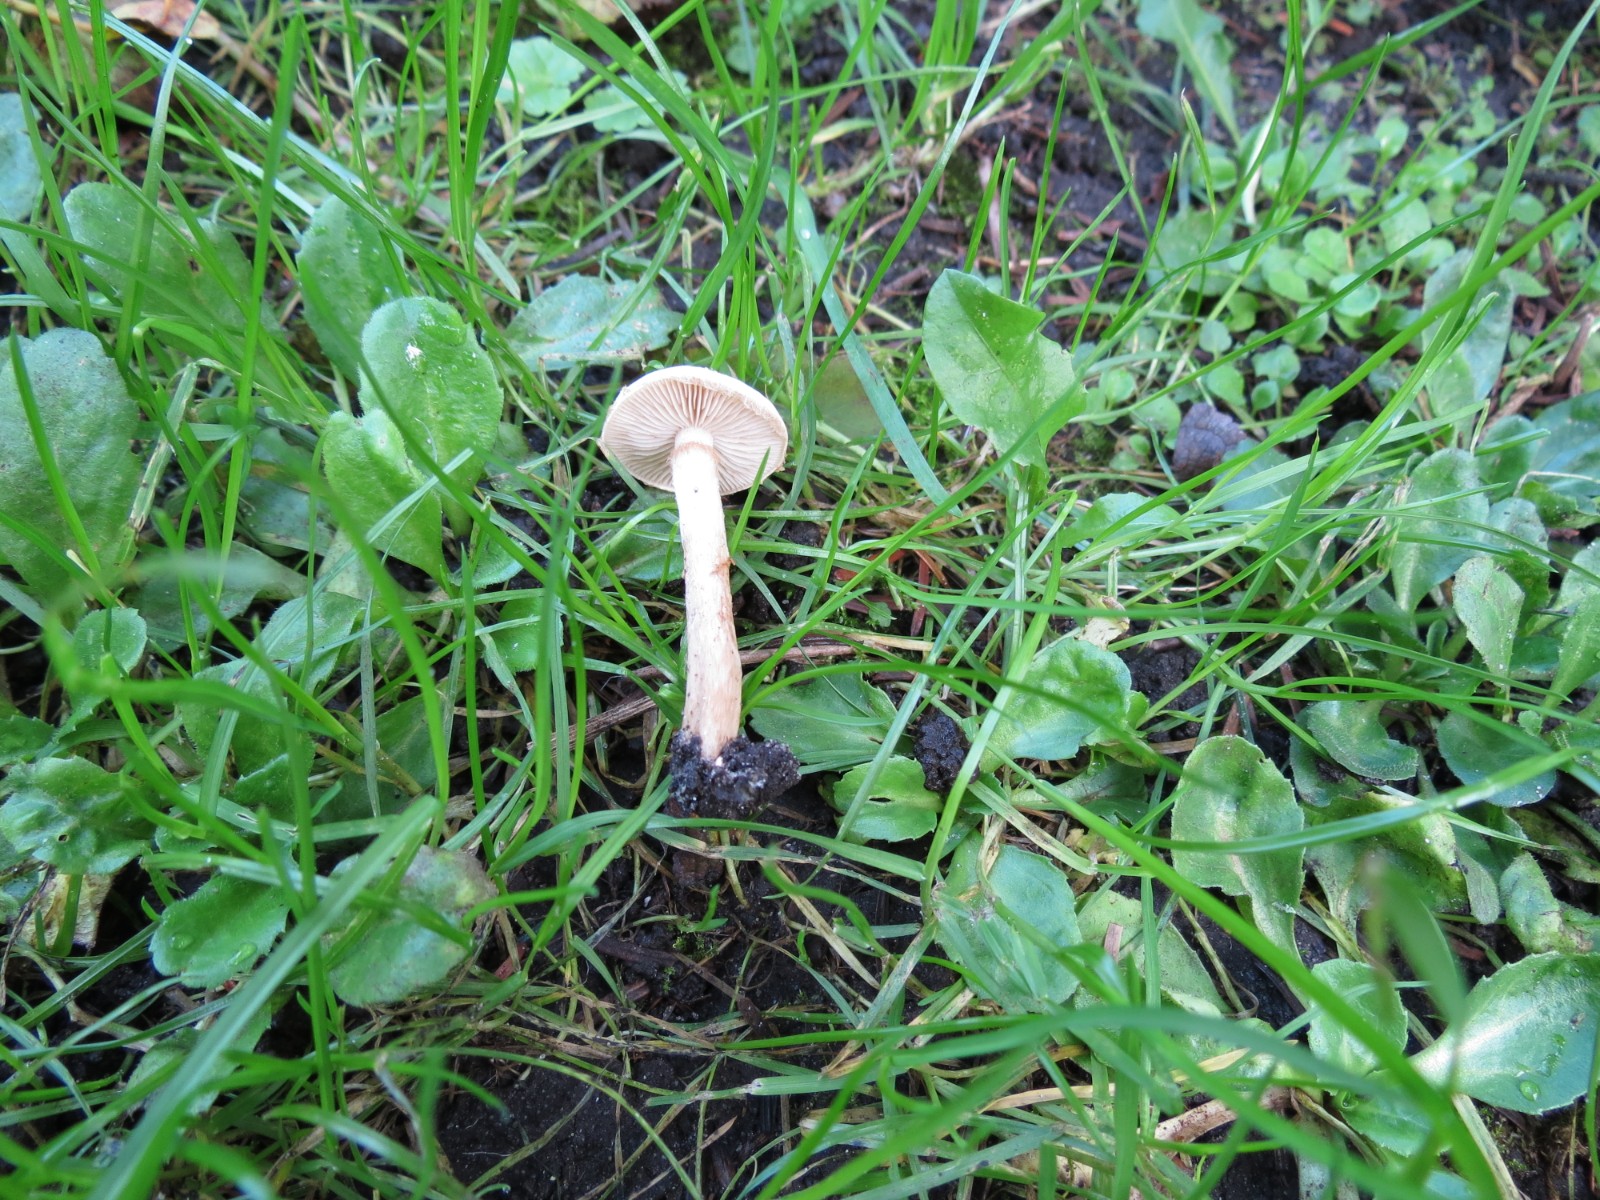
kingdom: Fungi
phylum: Basidiomycota
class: Agaricomycetes
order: Agaricales
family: Hymenogastraceae
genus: Hebeloma
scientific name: Hebeloma
